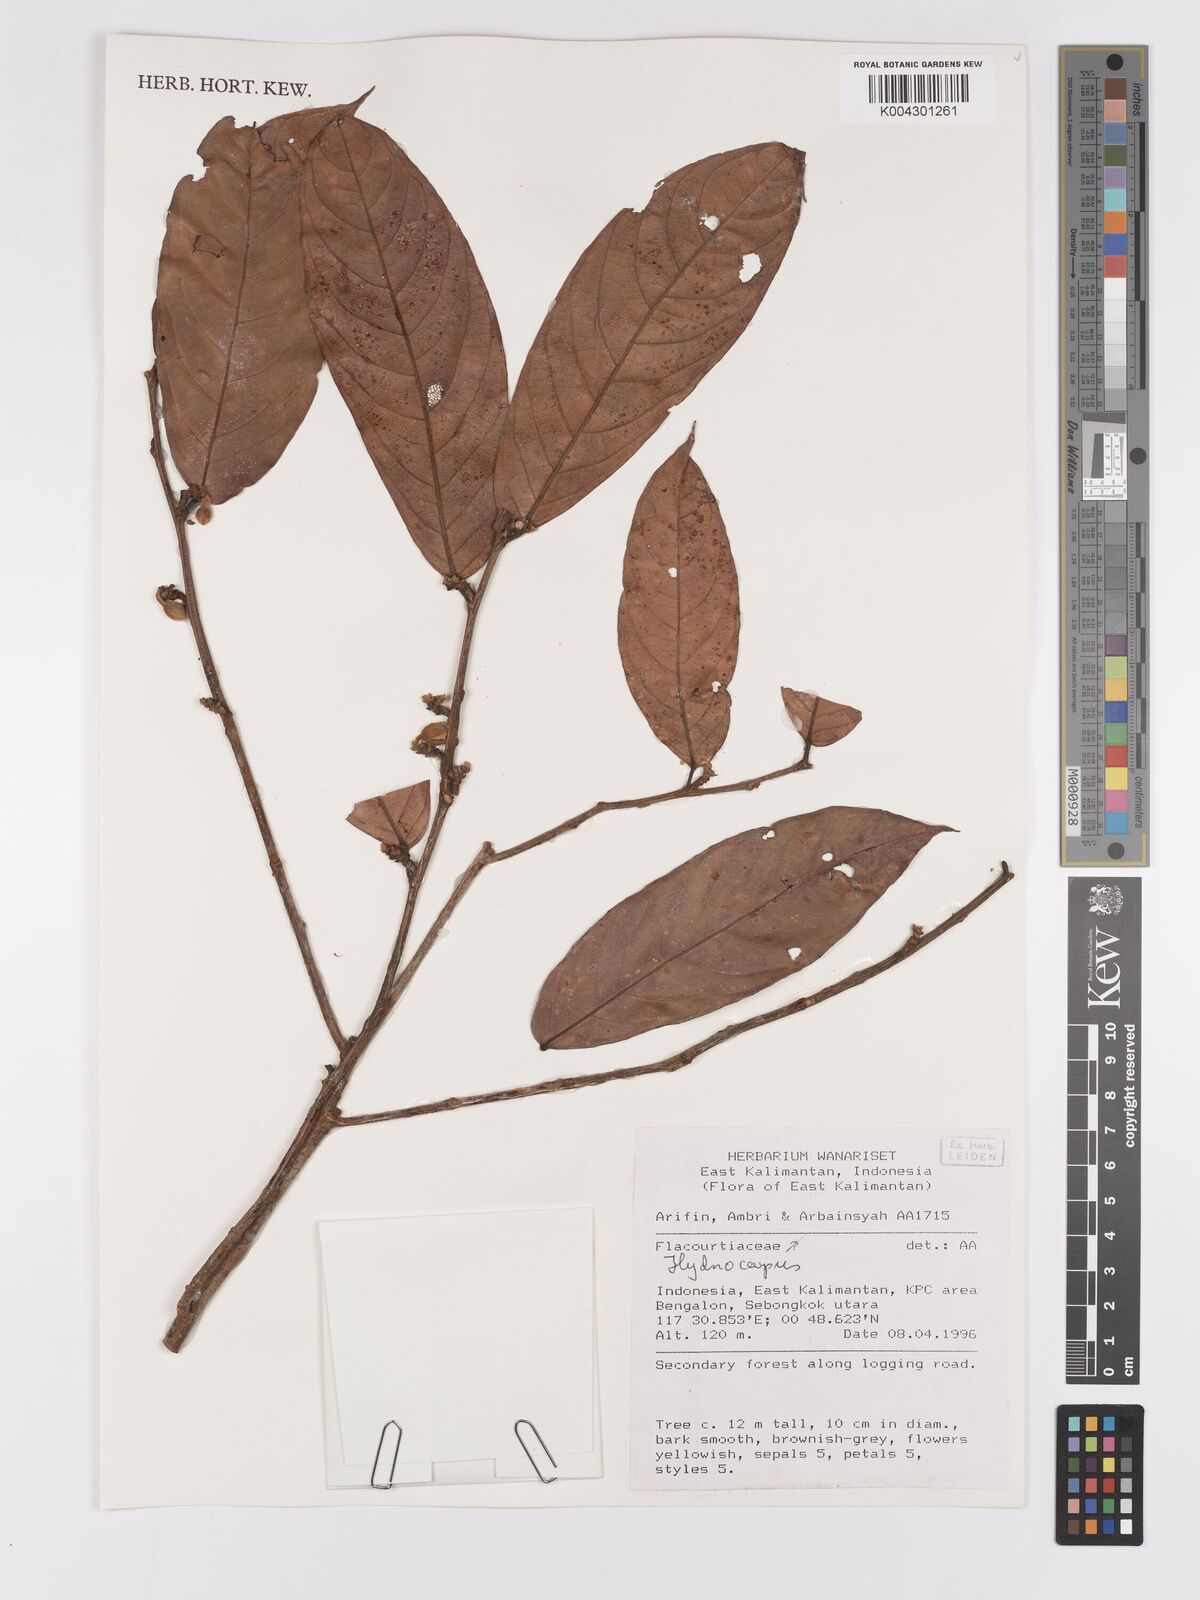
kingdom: Plantae
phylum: Tracheophyta
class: Magnoliopsida
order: Malpighiales
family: Achariaceae
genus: Hydnocarpus
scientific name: Hydnocarpus
